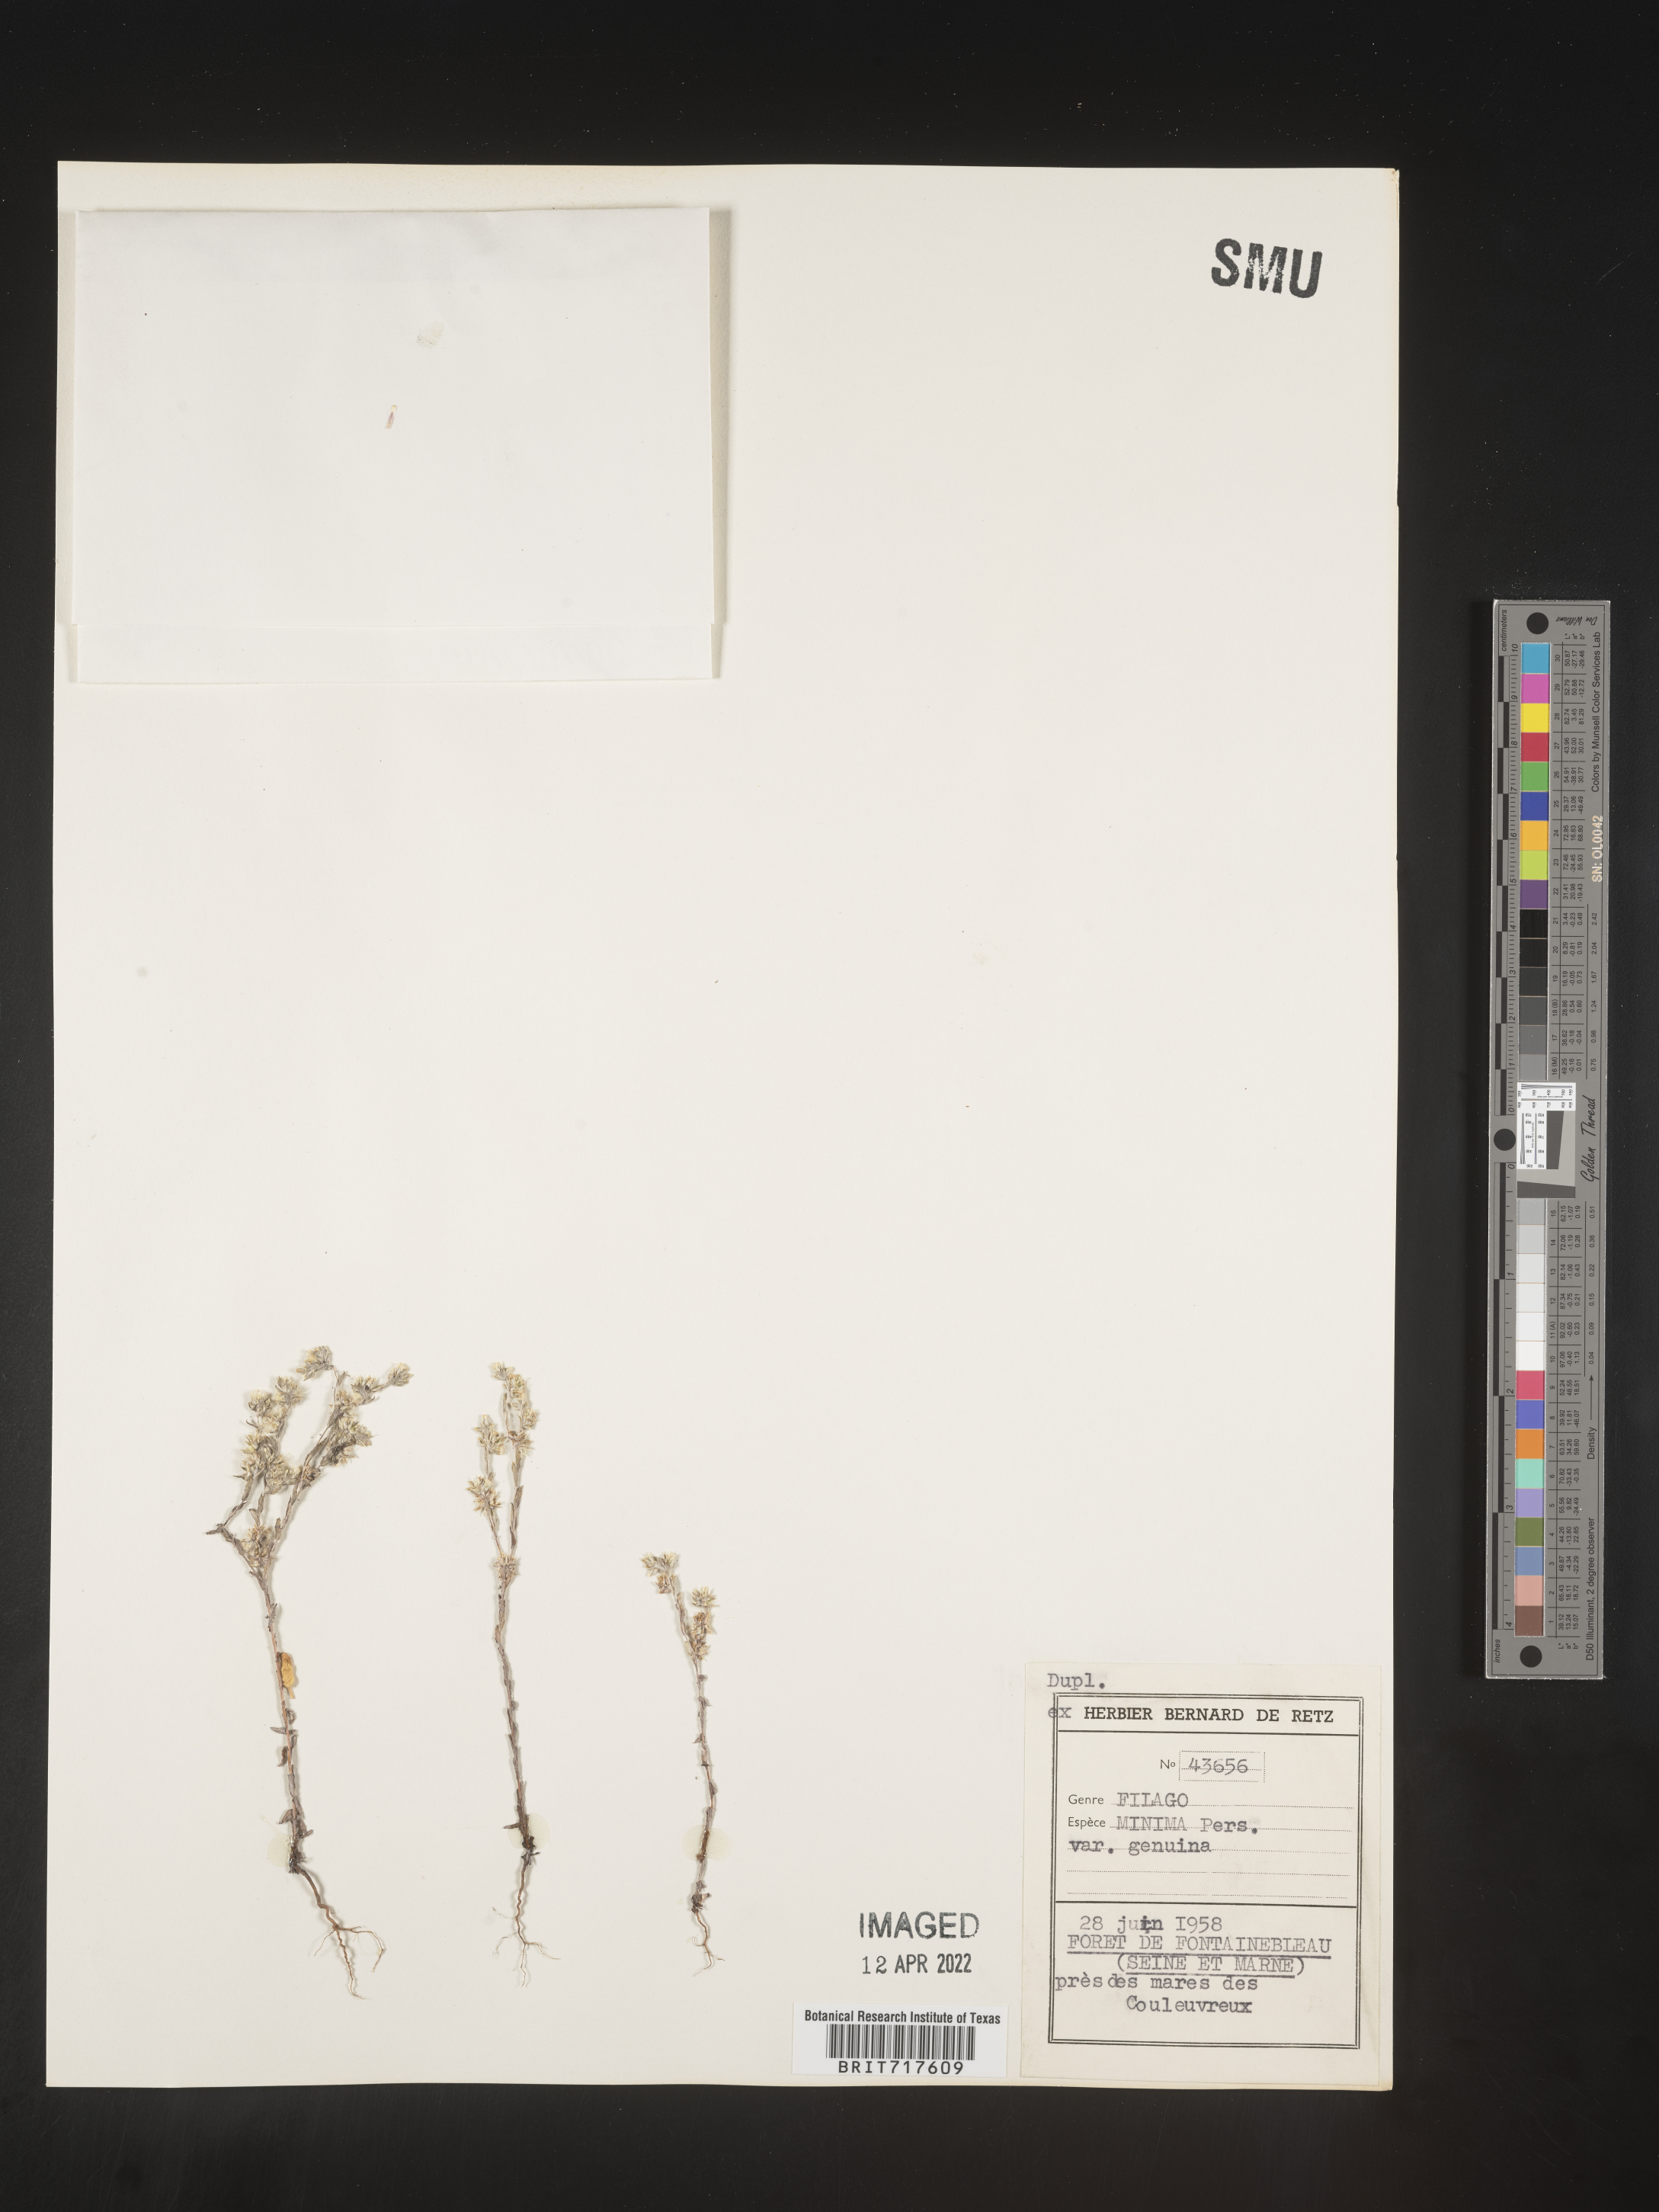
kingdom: Plantae
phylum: Tracheophyta
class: Magnoliopsida
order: Asterales
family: Asteraceae
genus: Filago
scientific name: Filago
